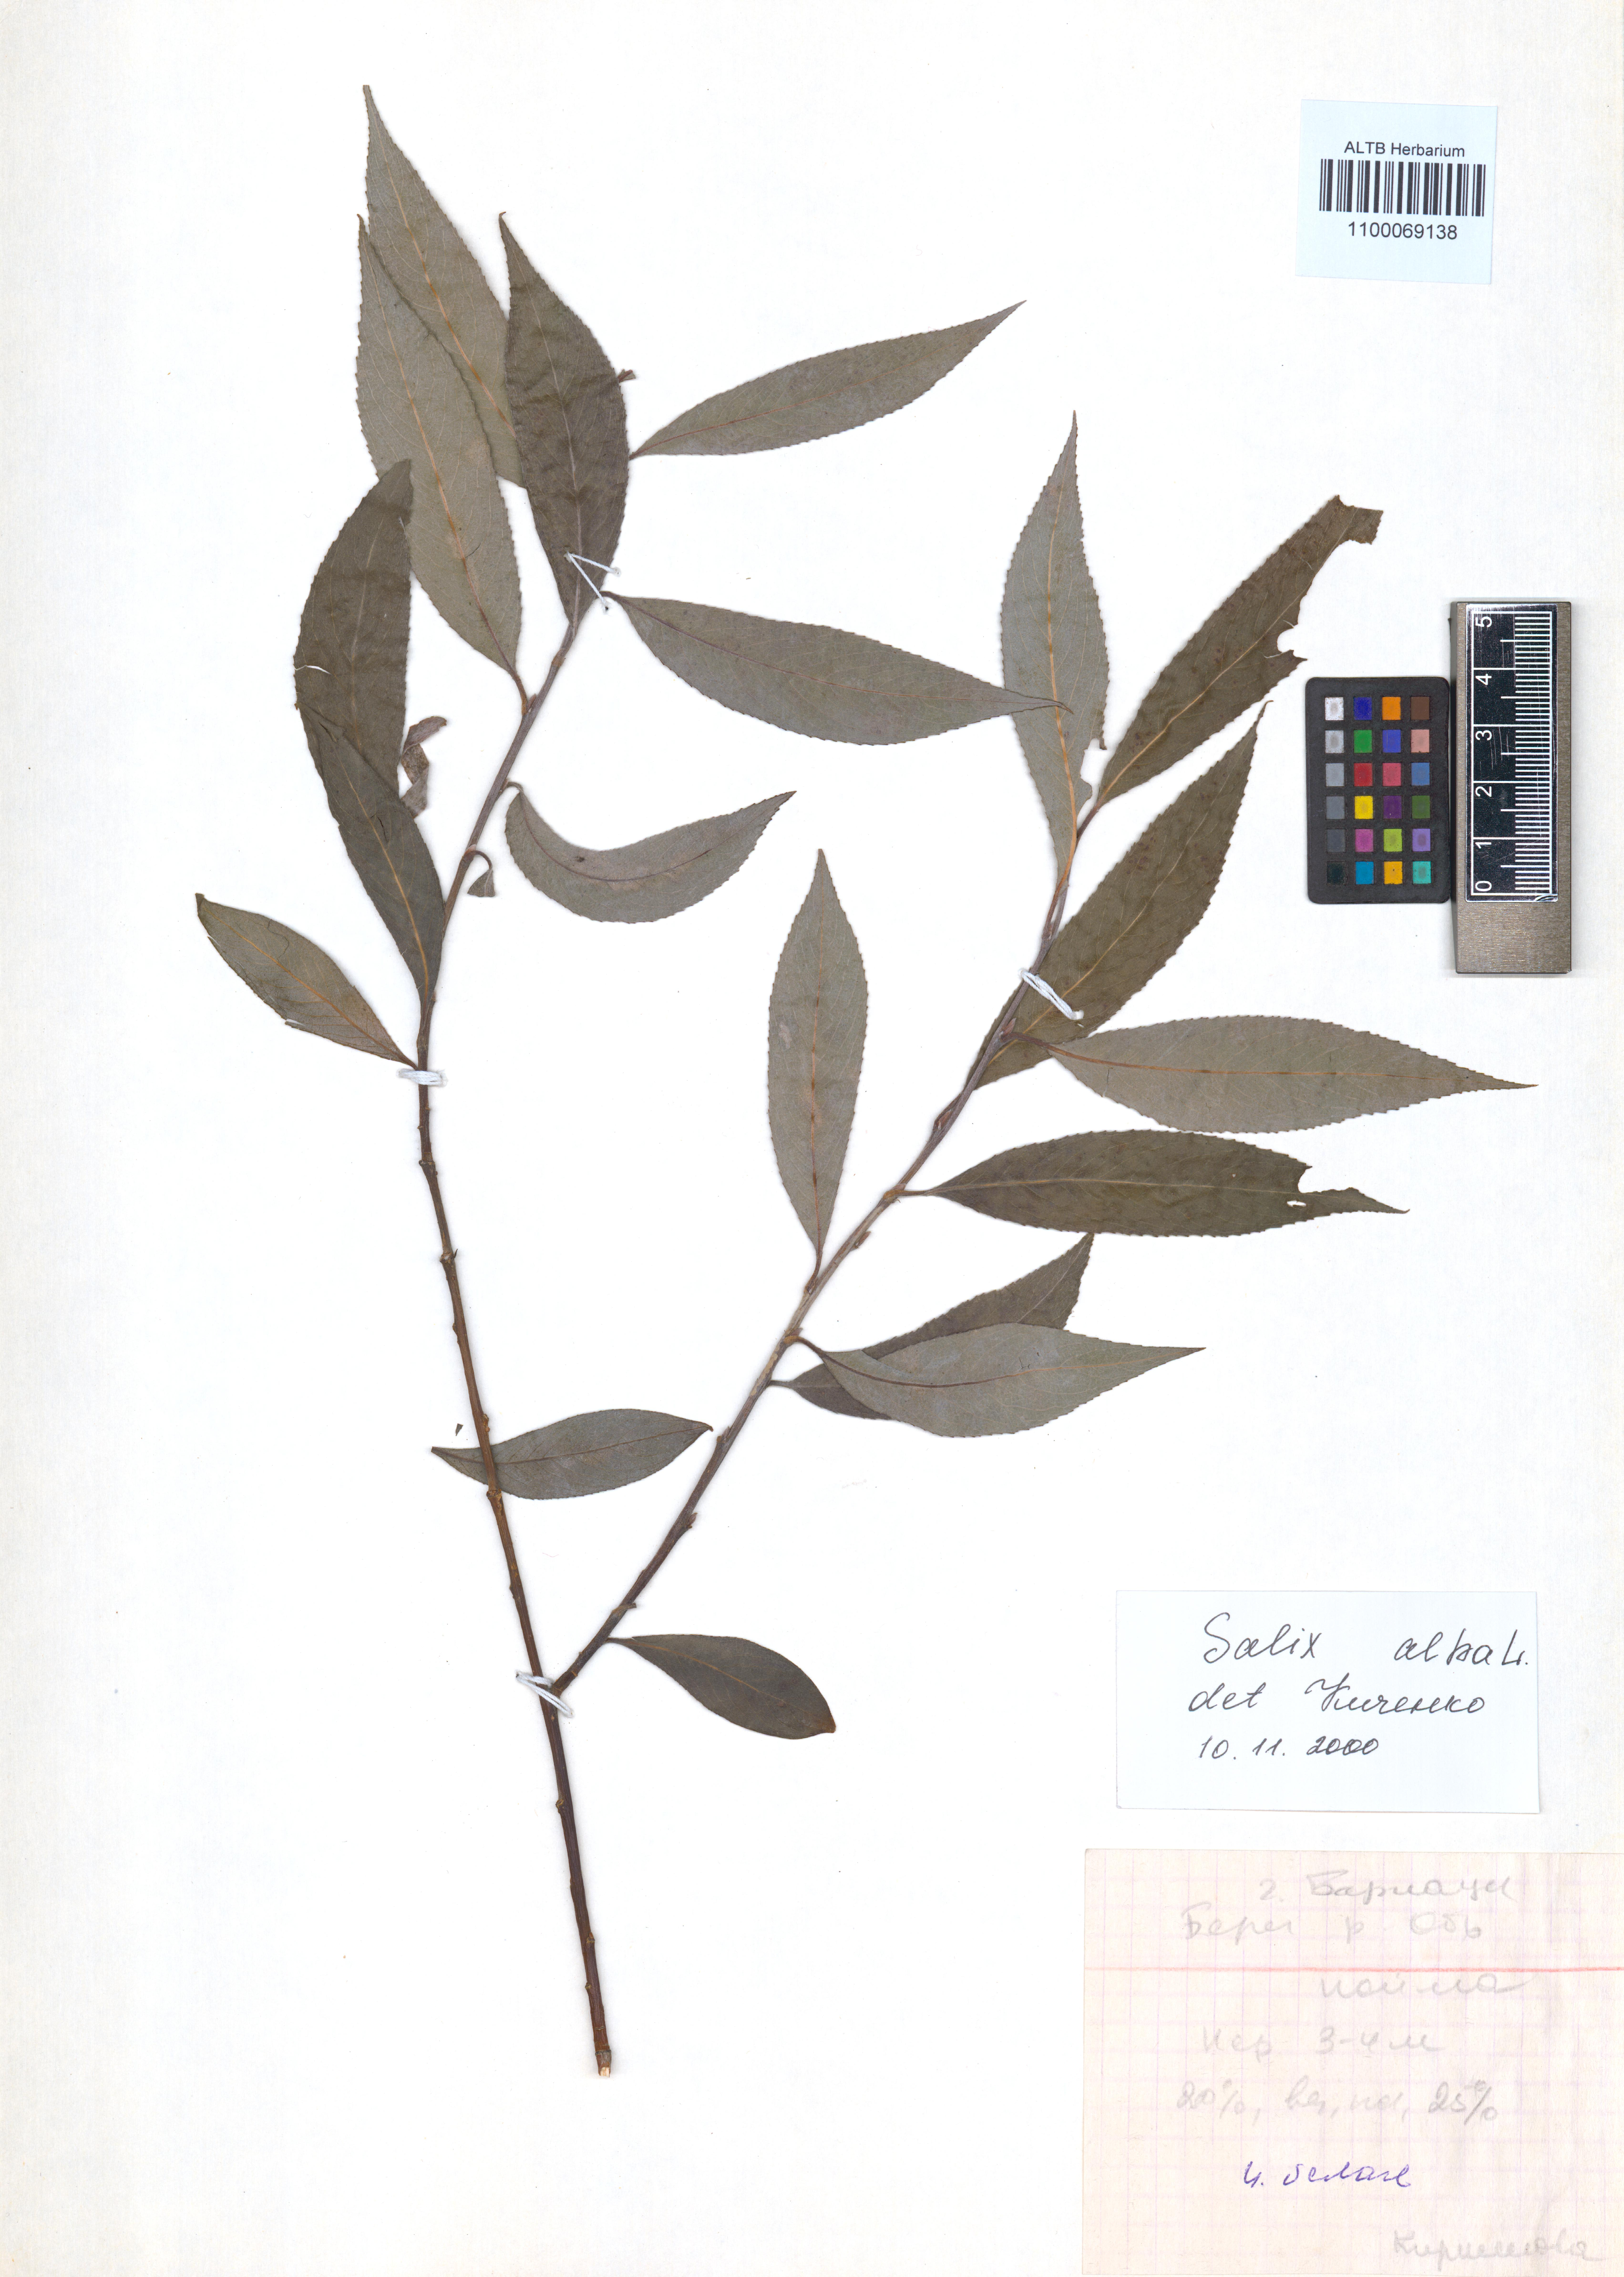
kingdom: Plantae
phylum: Tracheophyta
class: Magnoliopsida
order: Malpighiales
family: Salicaceae
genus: Salix
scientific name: Salix alba
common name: White willow
